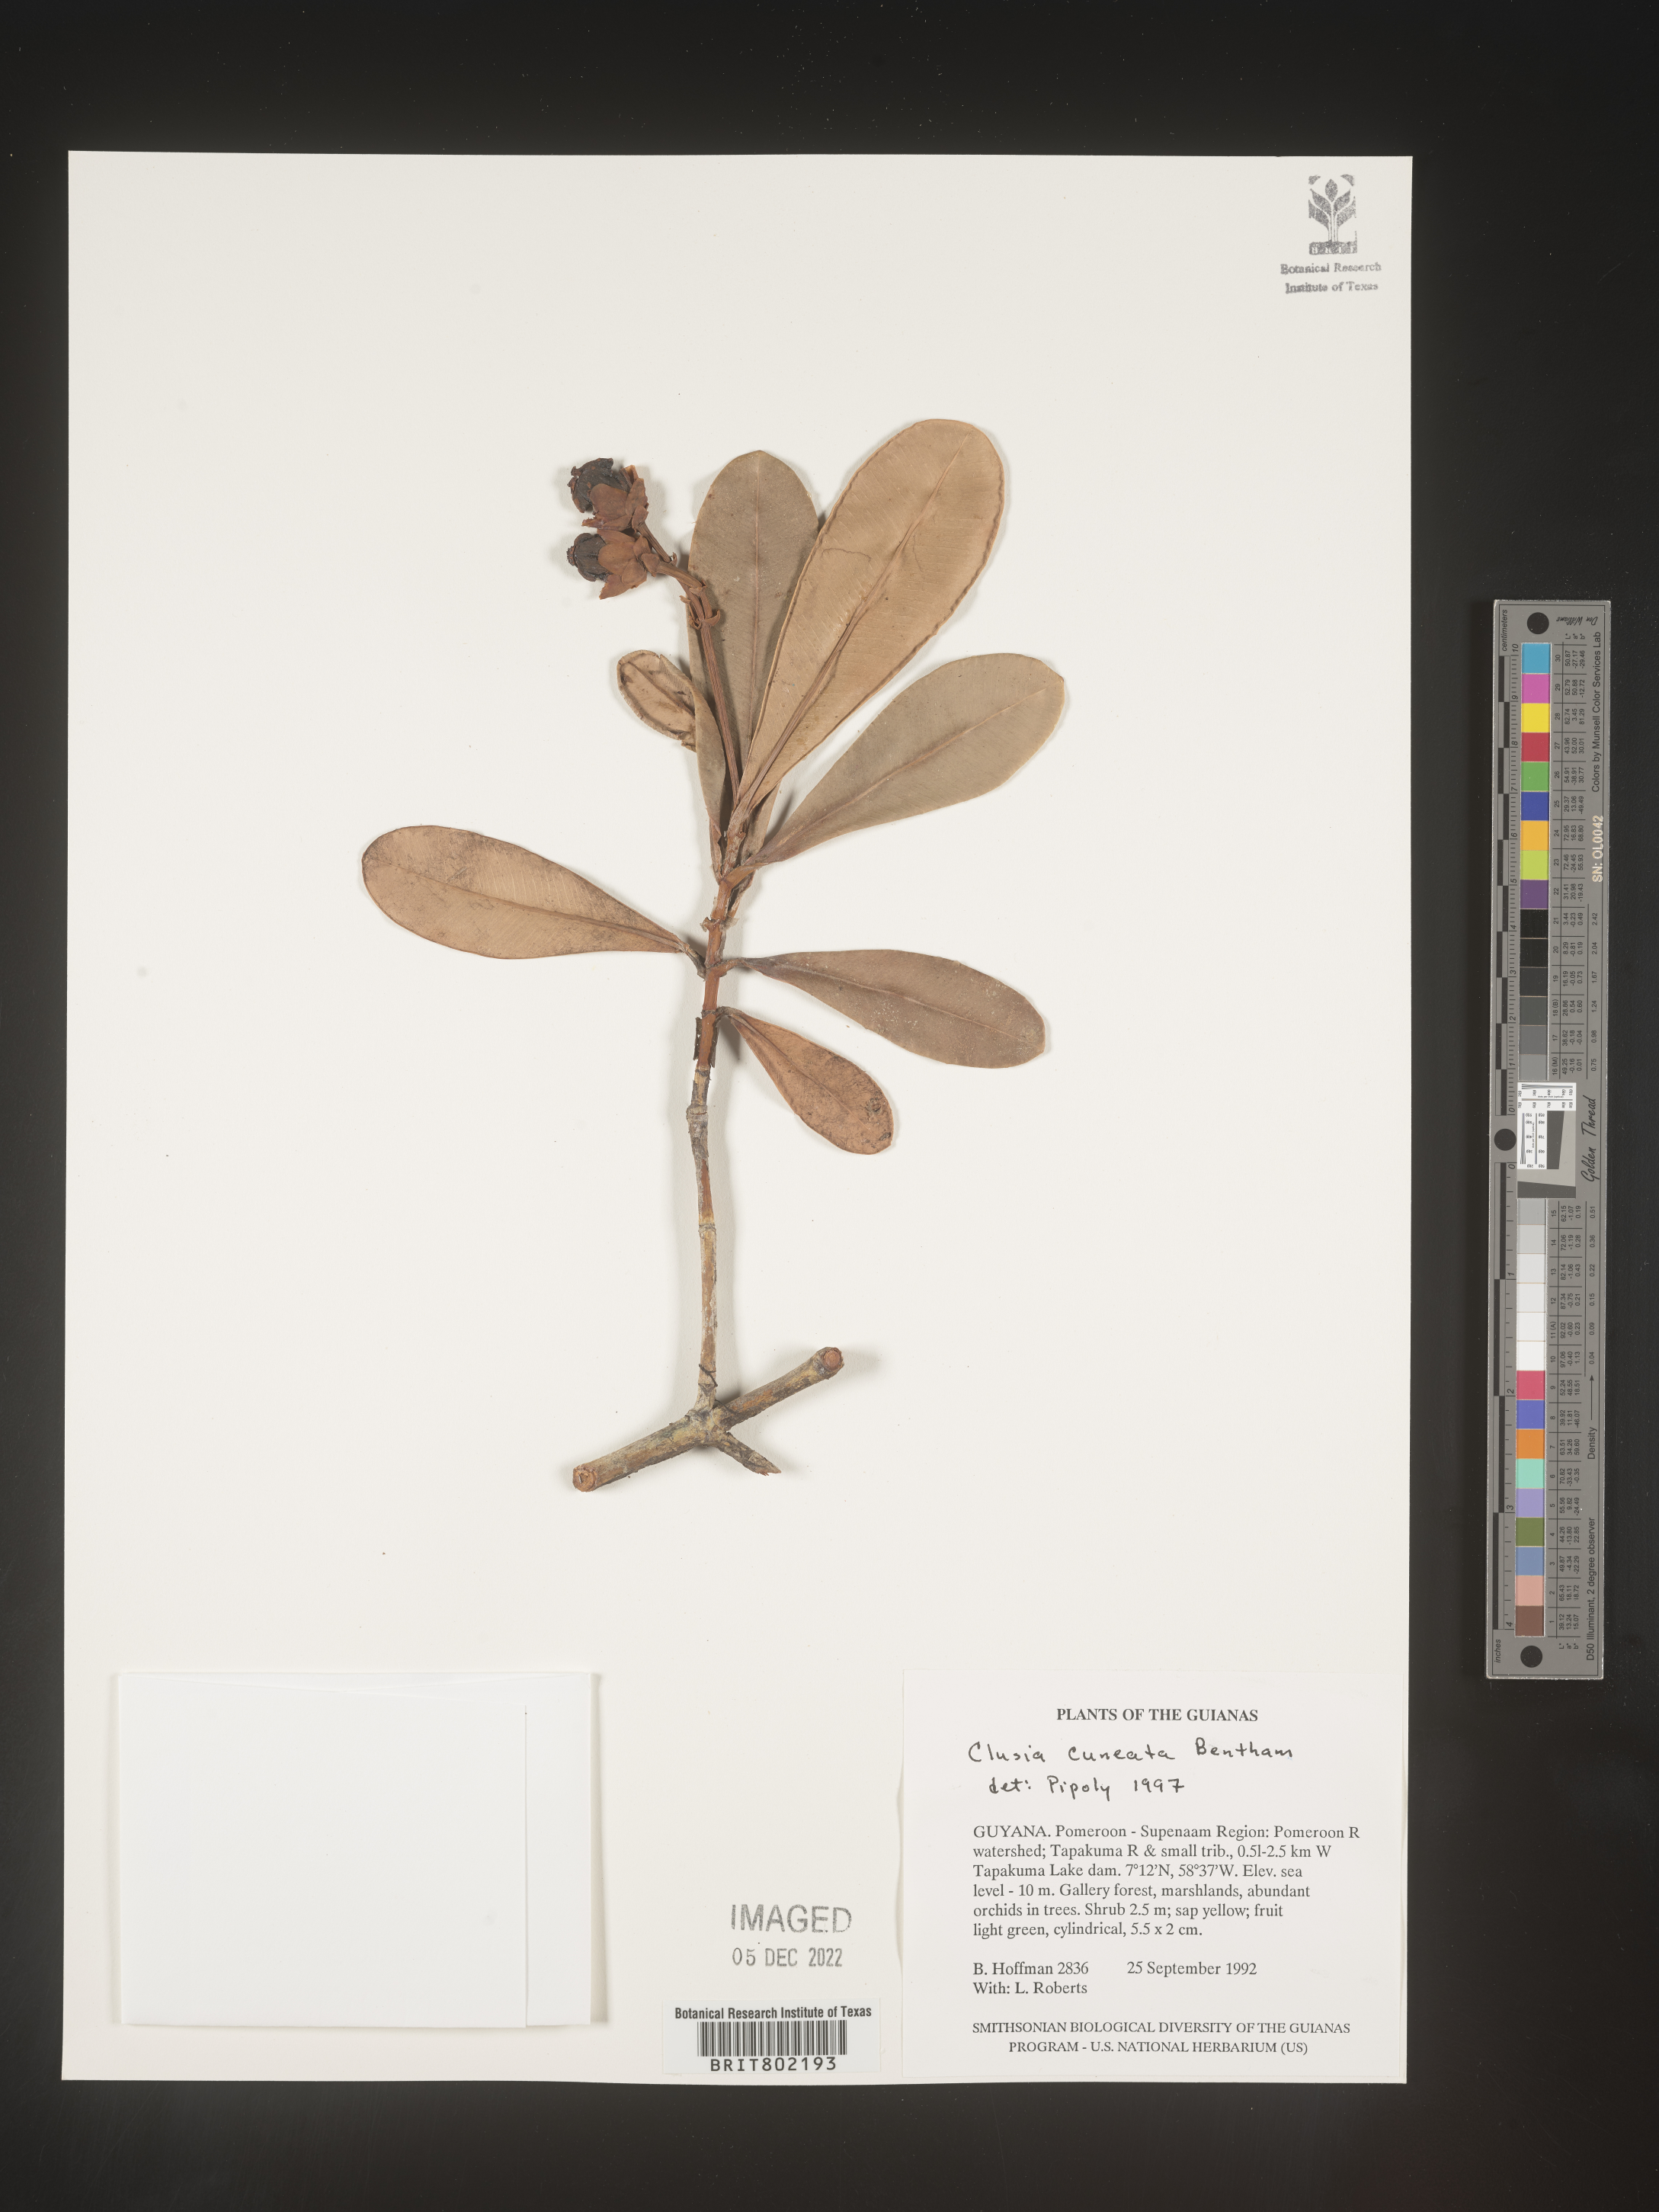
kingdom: Plantae
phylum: Tracheophyta
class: Magnoliopsida
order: Malpighiales
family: Clusiaceae
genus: Clusia
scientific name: Clusia
